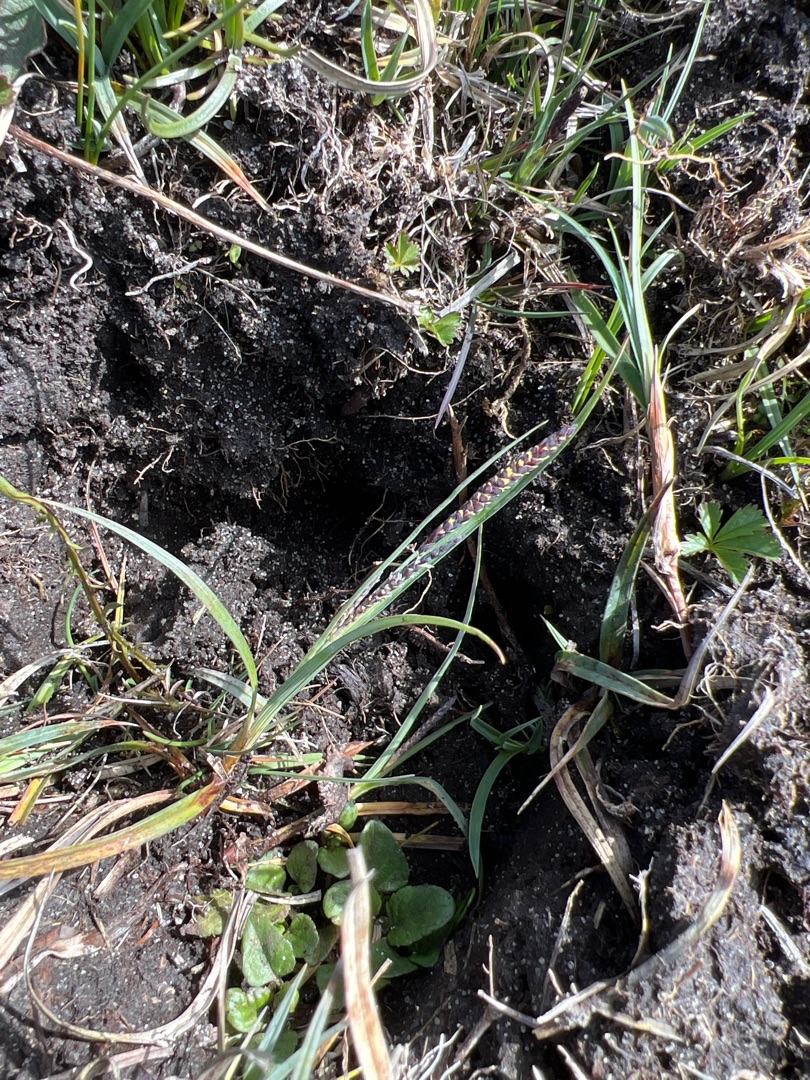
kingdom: Plantae
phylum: Tracheophyta
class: Liliopsida
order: Poales
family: Cyperaceae
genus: Carex
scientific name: Carex flacca
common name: Blågrøn star
